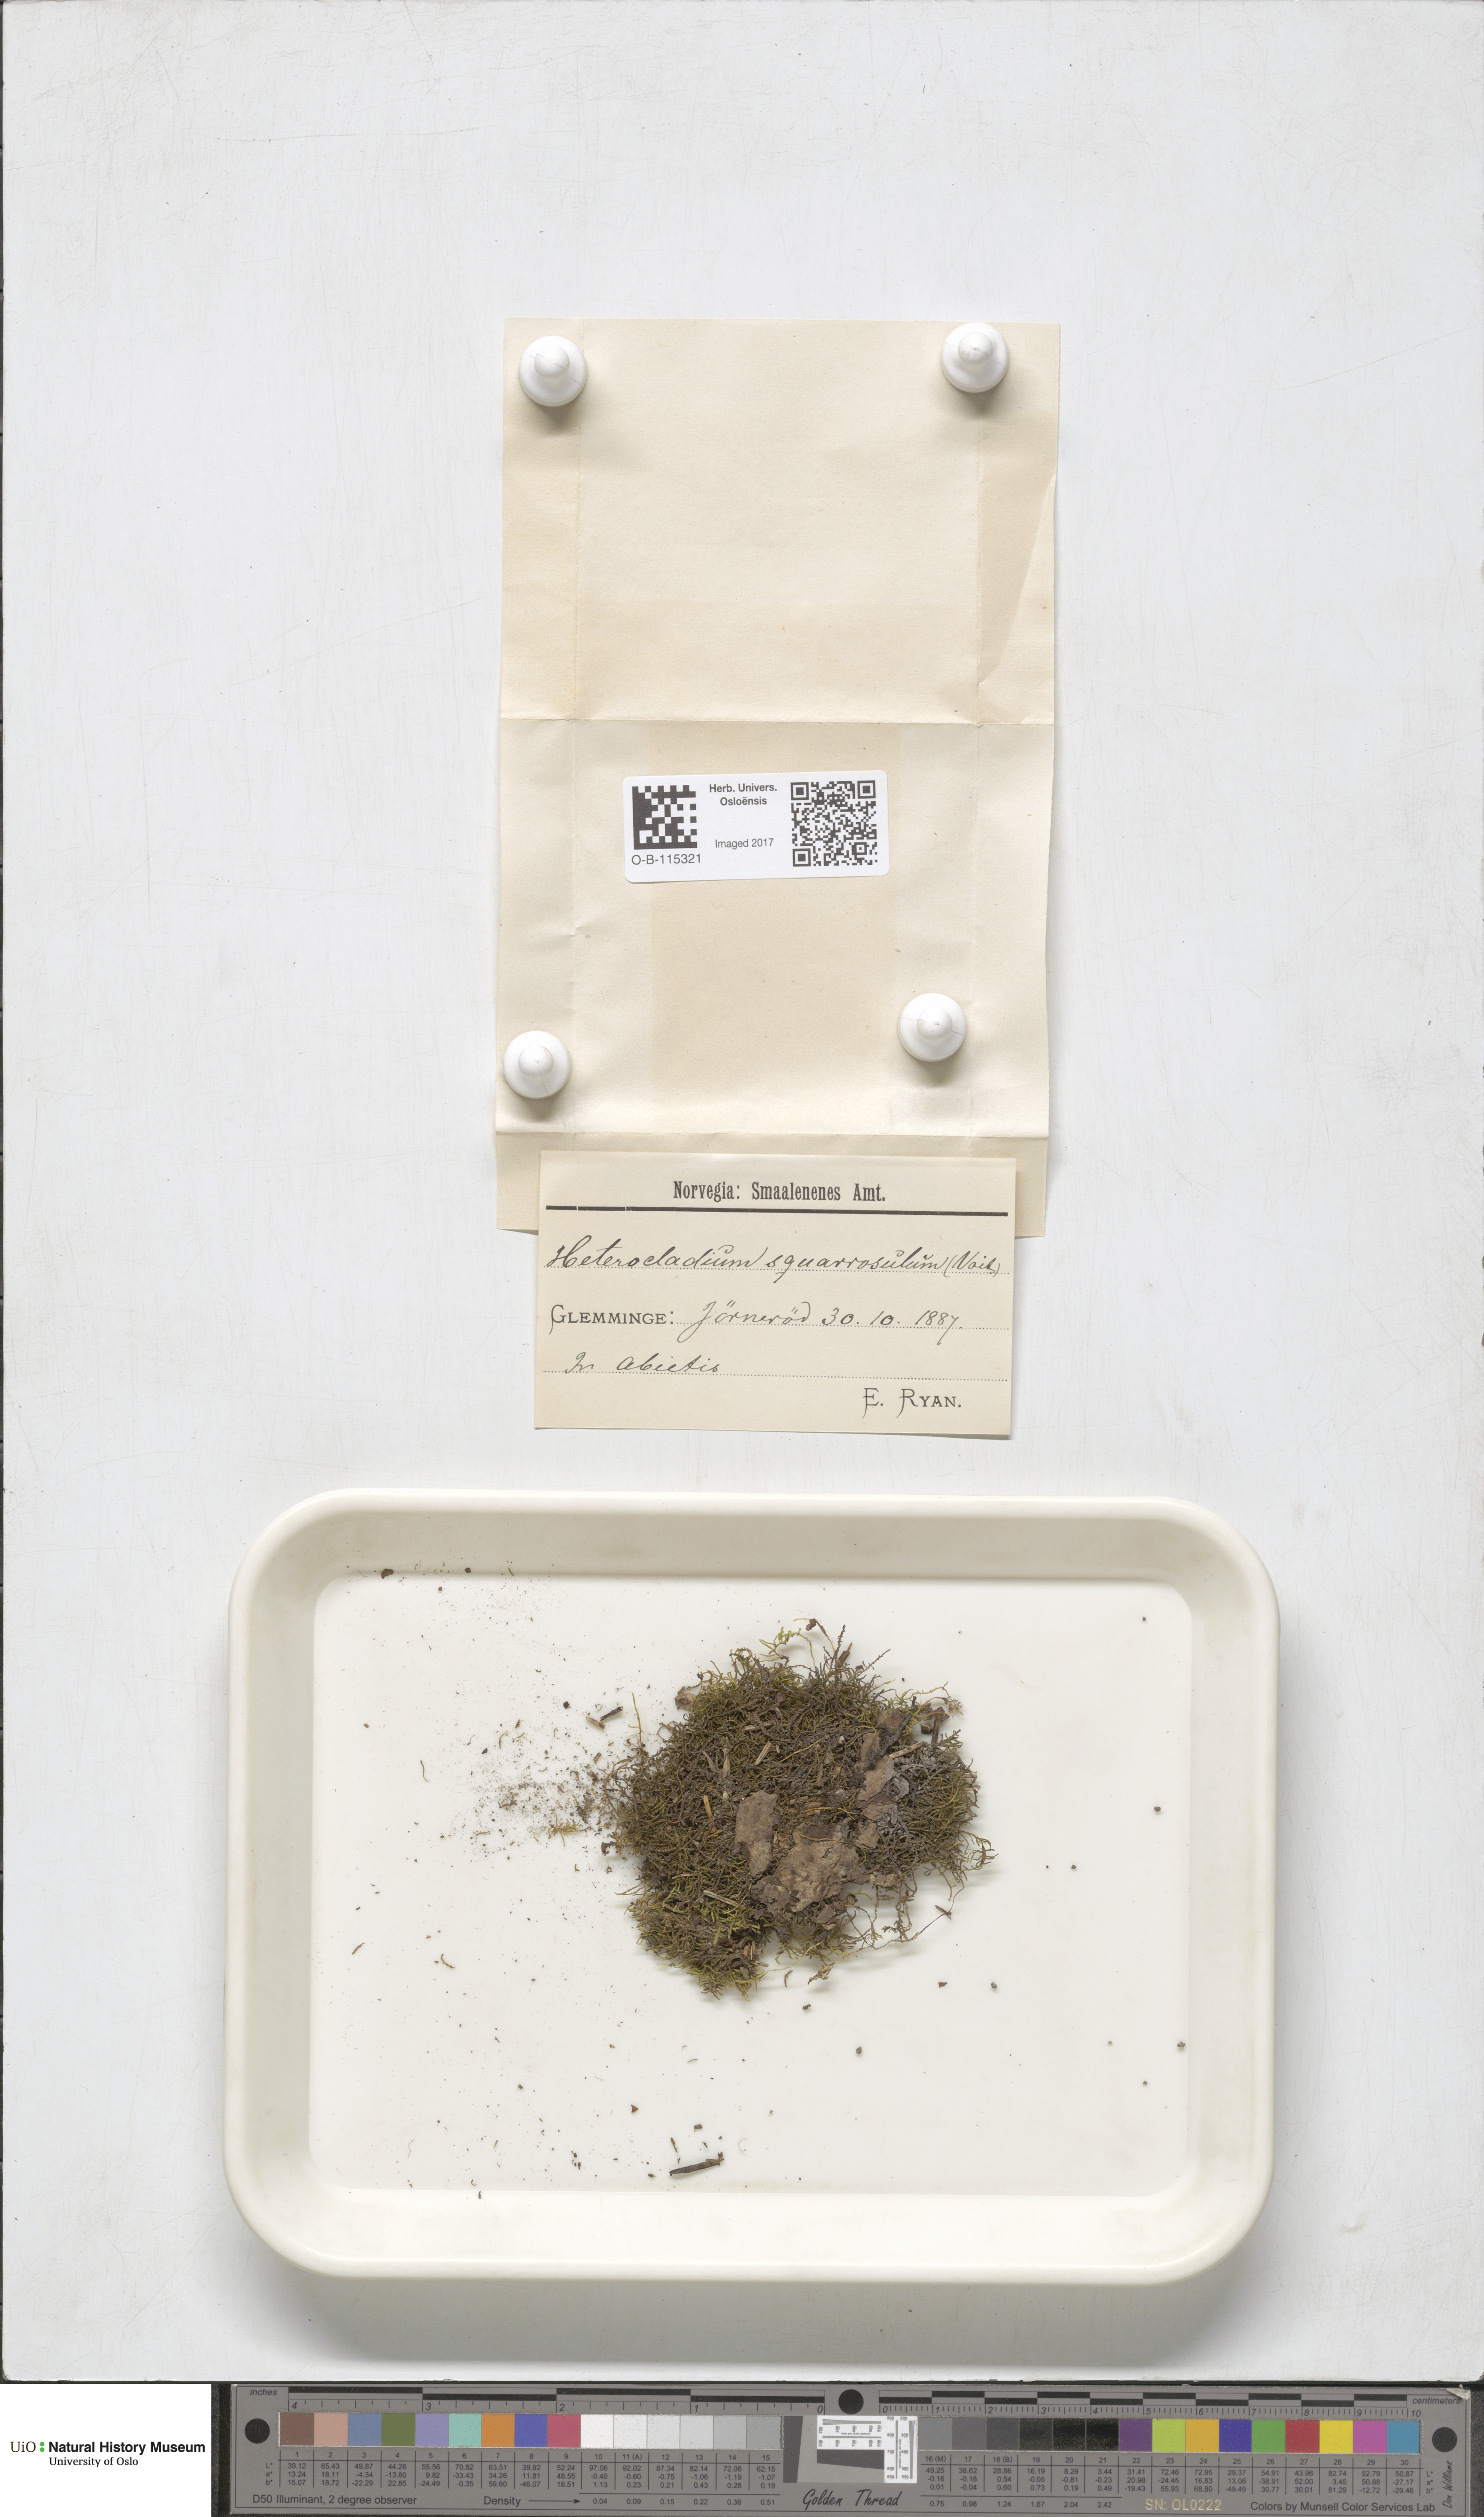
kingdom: Plantae
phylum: Bryophyta
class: Bryopsida
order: Hypnales
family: Heterocladiellaceae
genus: Heterocladiella
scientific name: Heterocladiella dimorpha
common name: Dimorphous tamarisk-moss
